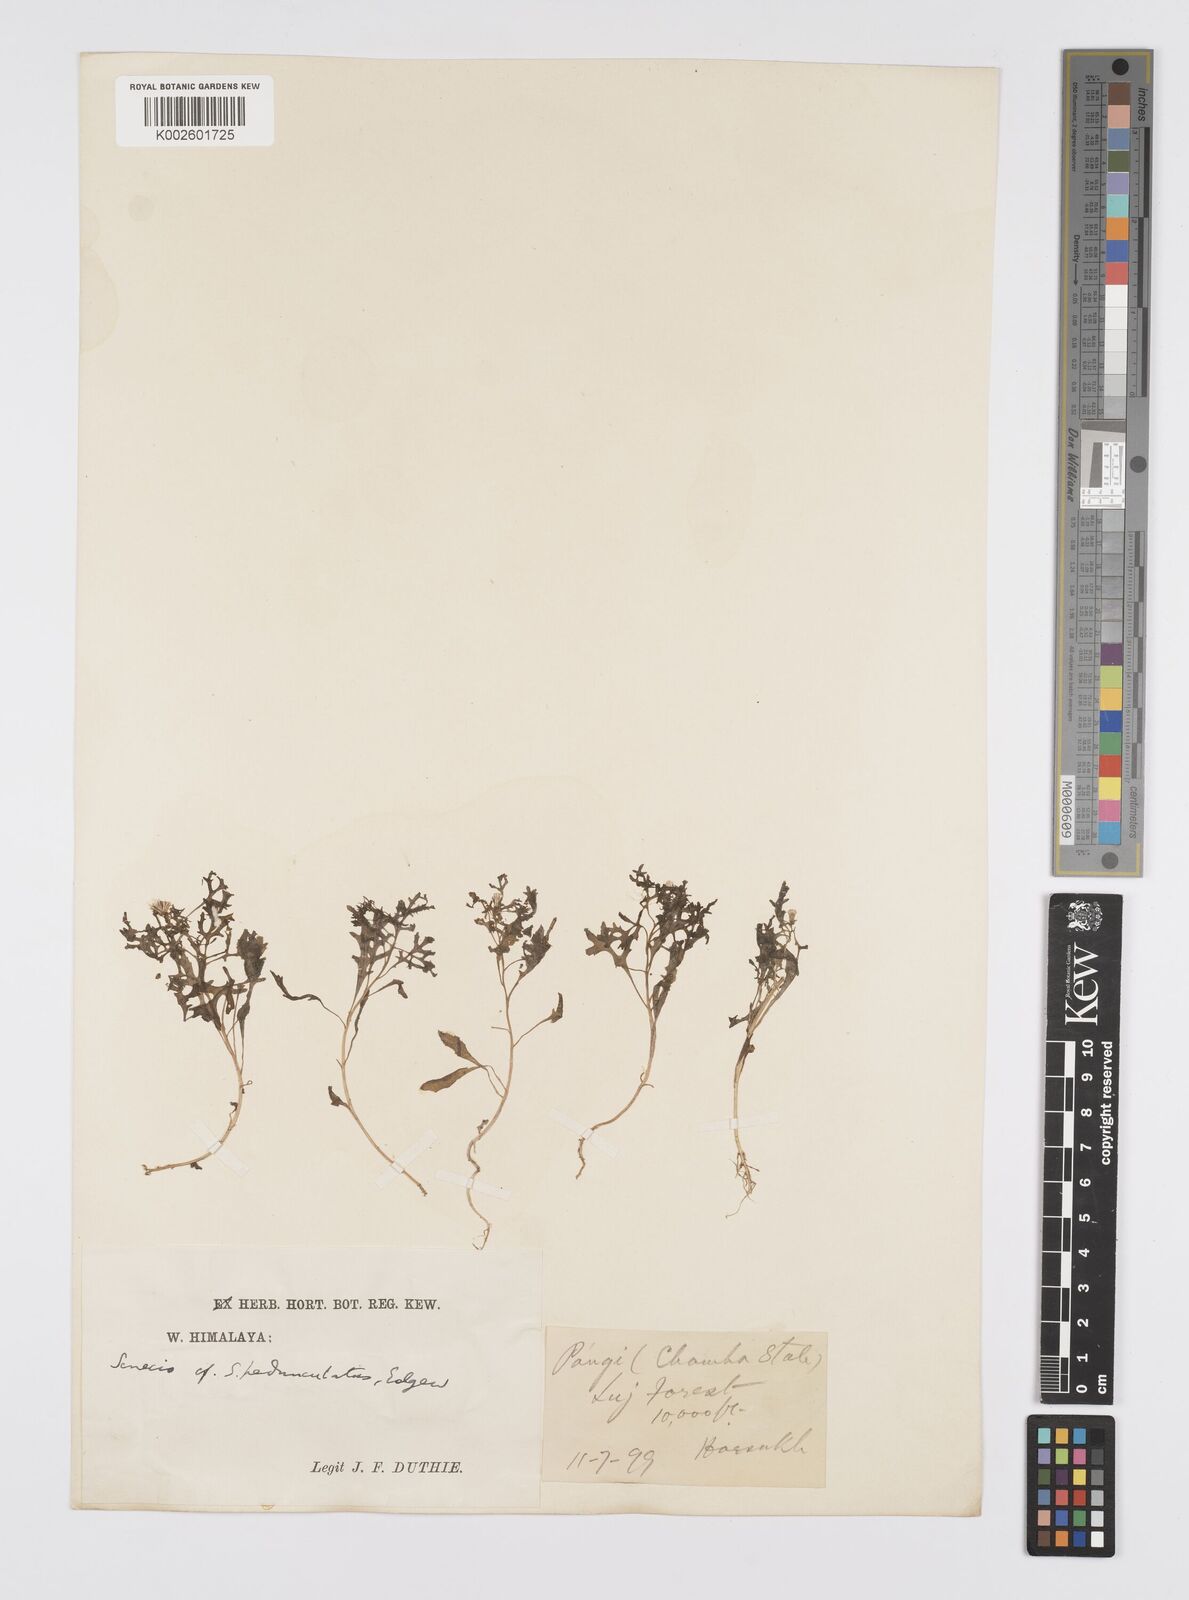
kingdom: Plantae
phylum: Tracheophyta
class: Magnoliopsida
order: Asterales
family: Asteraceae
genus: Senecio
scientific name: Senecio krascheninnikovii
